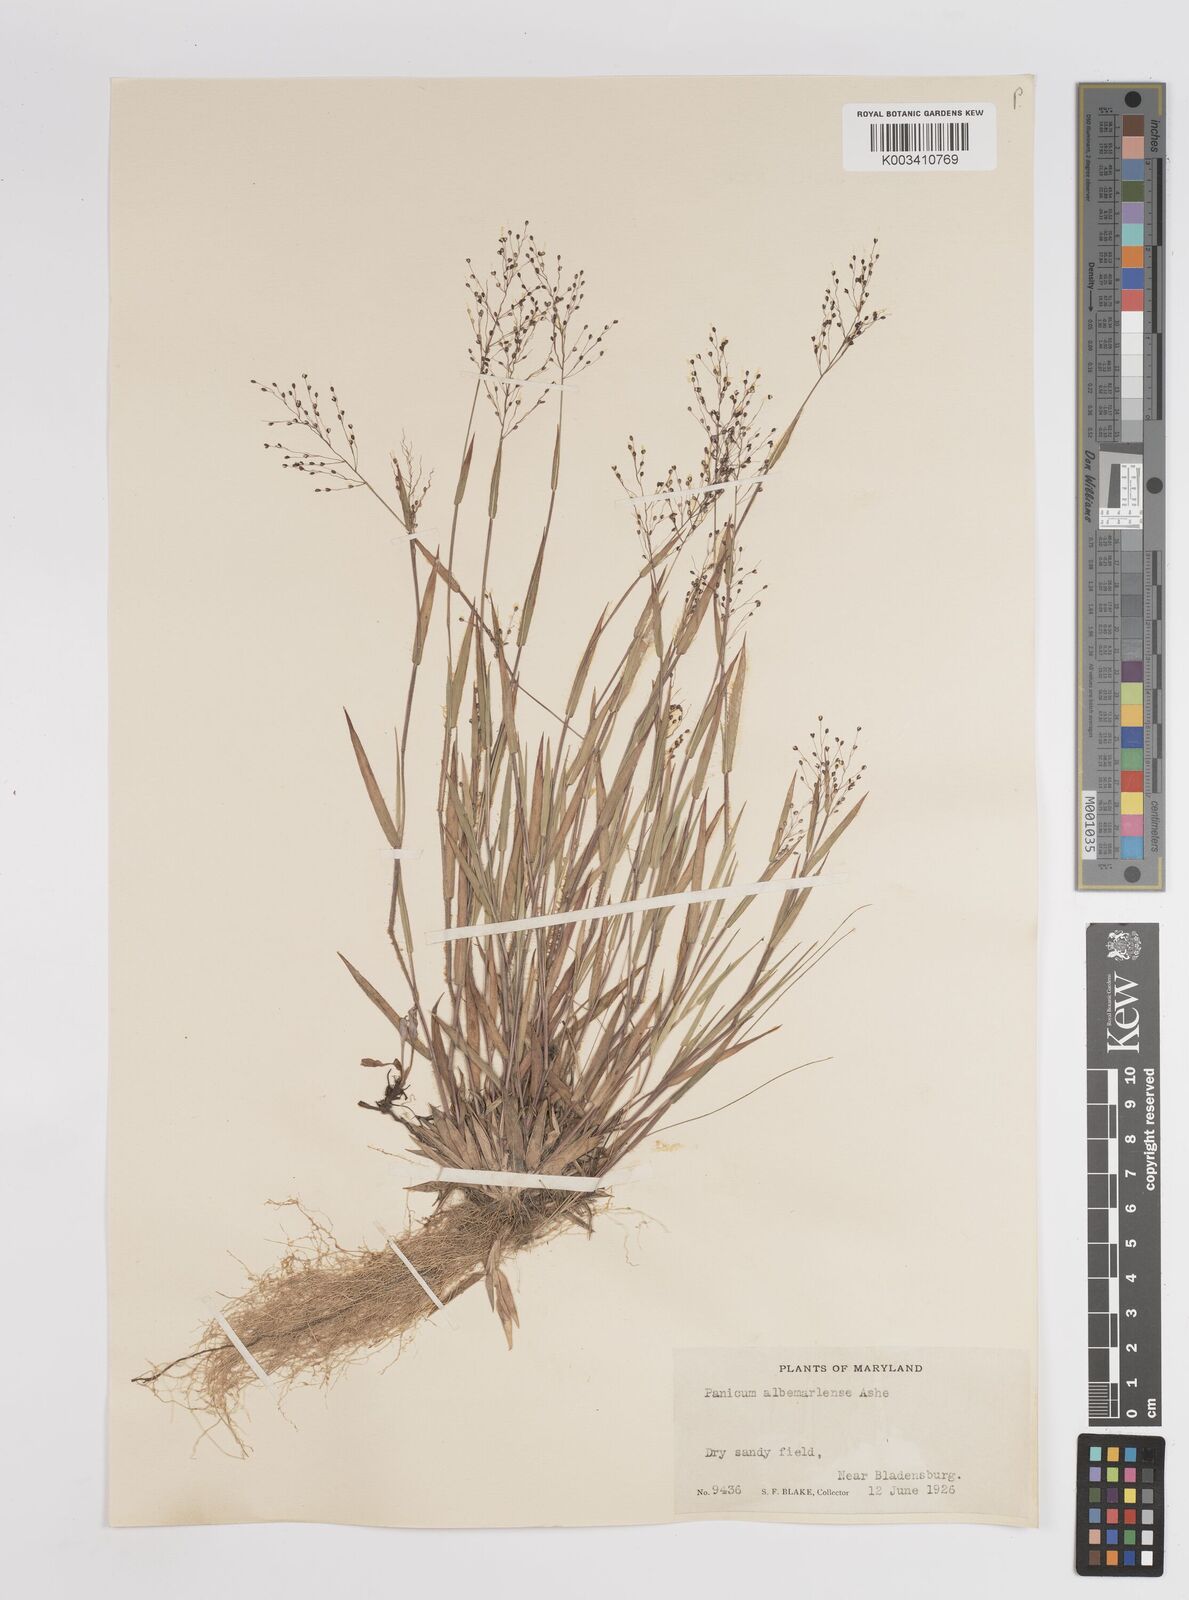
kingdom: Plantae
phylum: Tracheophyta
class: Liliopsida
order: Poales
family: Poaceae
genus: Dichanthelium
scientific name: Dichanthelium meridionale
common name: Mat panicgrass
